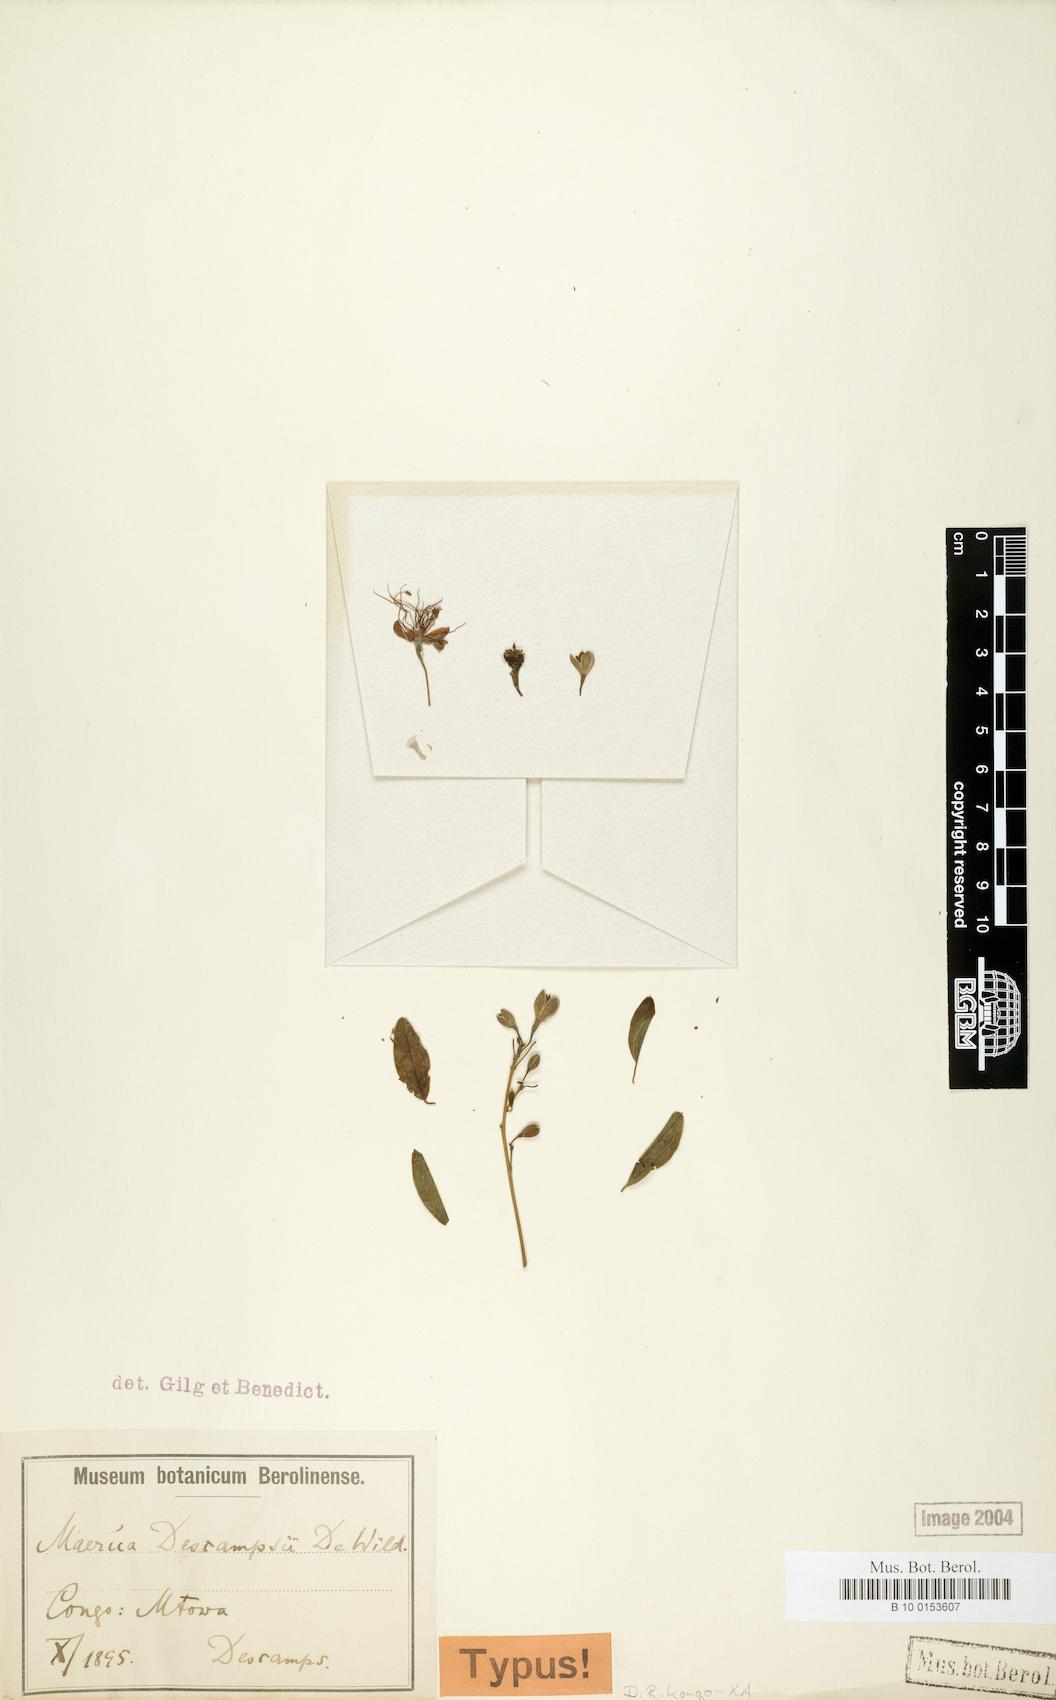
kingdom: Plantae
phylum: Tracheophyta
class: Magnoliopsida
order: Brassicales
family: Capparaceae
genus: Maerua
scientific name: Maerua descampsii
